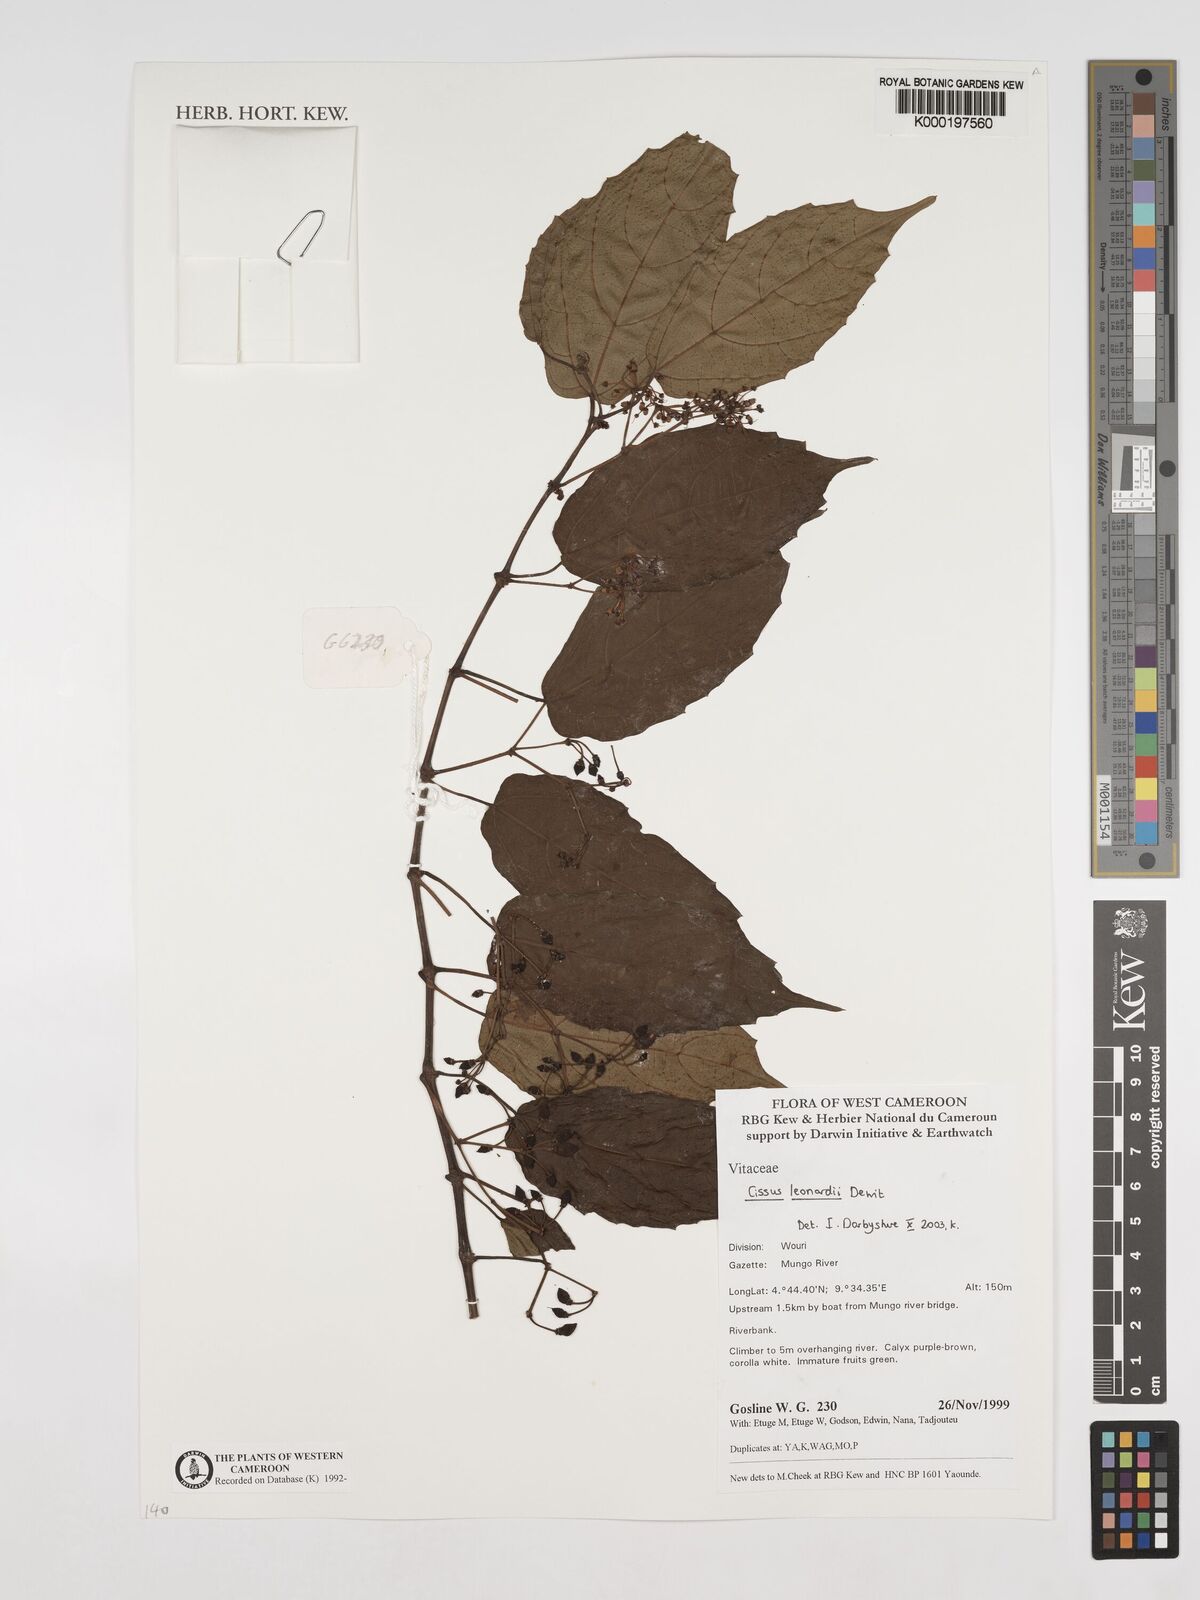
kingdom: Plantae
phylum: Tracheophyta
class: Magnoliopsida
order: Vitales
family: Vitaceae
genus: Cissus
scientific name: Cissus leonardii
